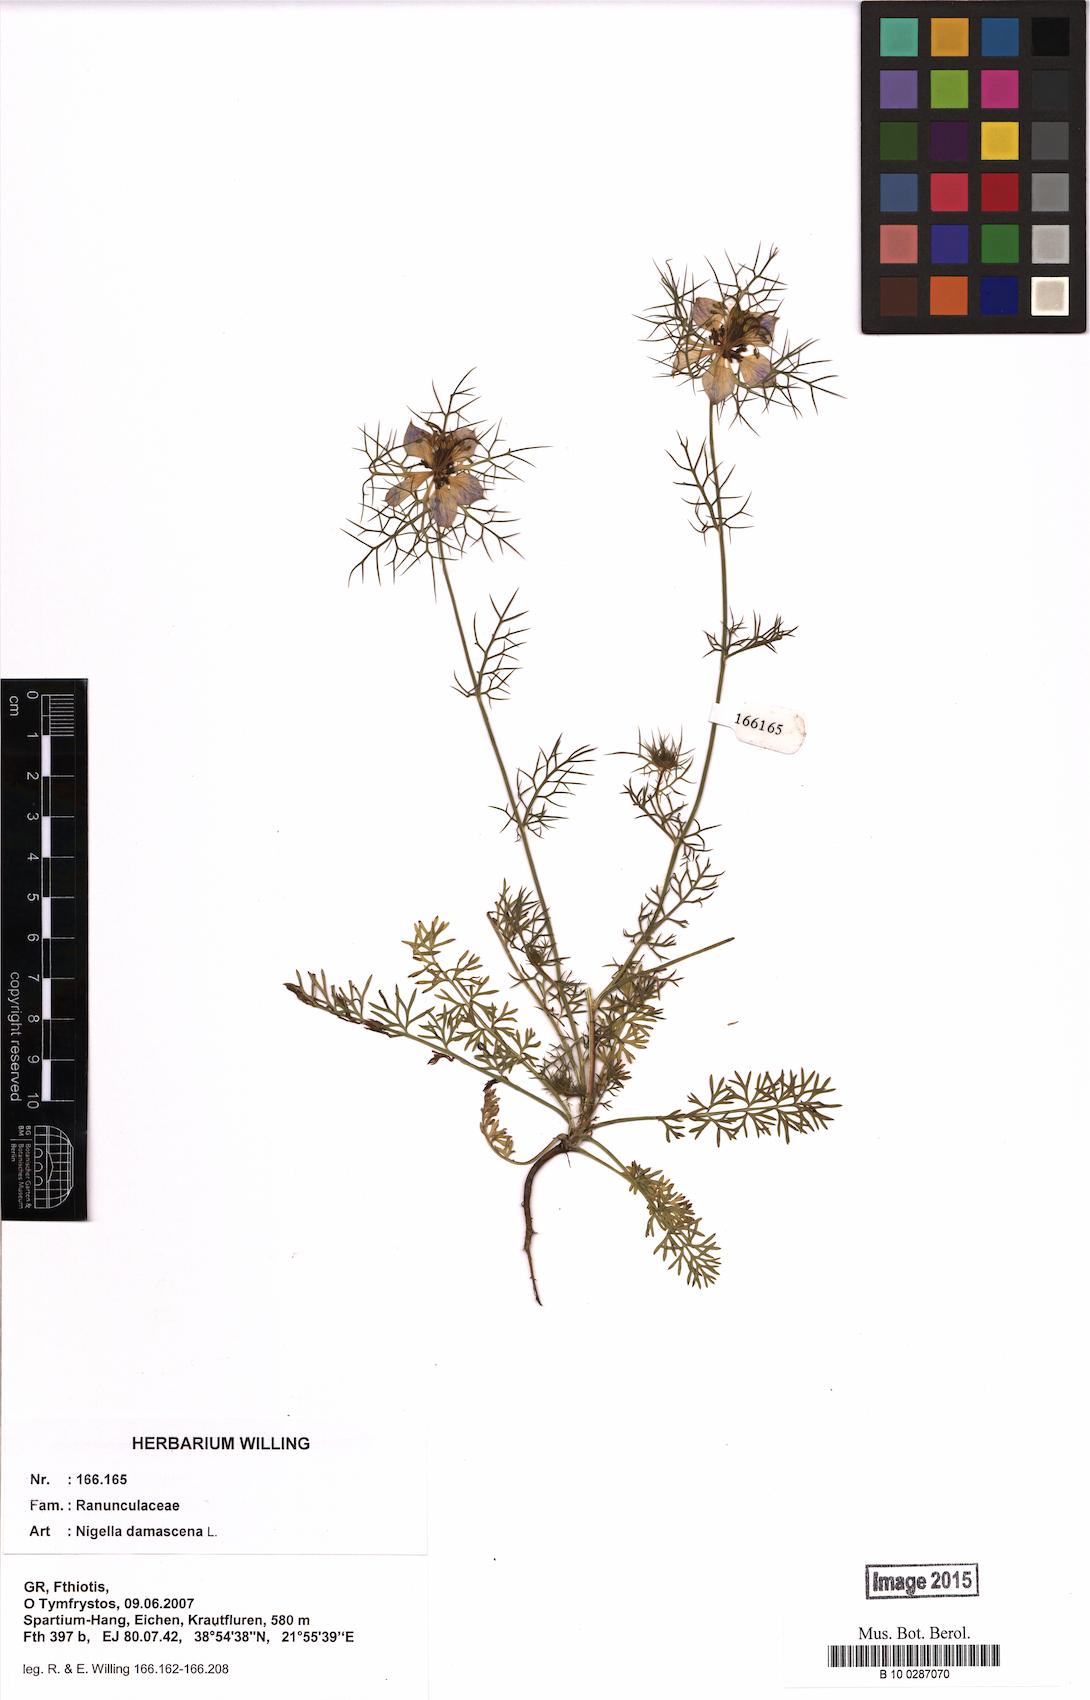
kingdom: Plantae
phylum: Tracheophyta
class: Magnoliopsida
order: Ranunculales
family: Ranunculaceae
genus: Nigella
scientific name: Nigella damascena
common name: Love-in-a-mist
